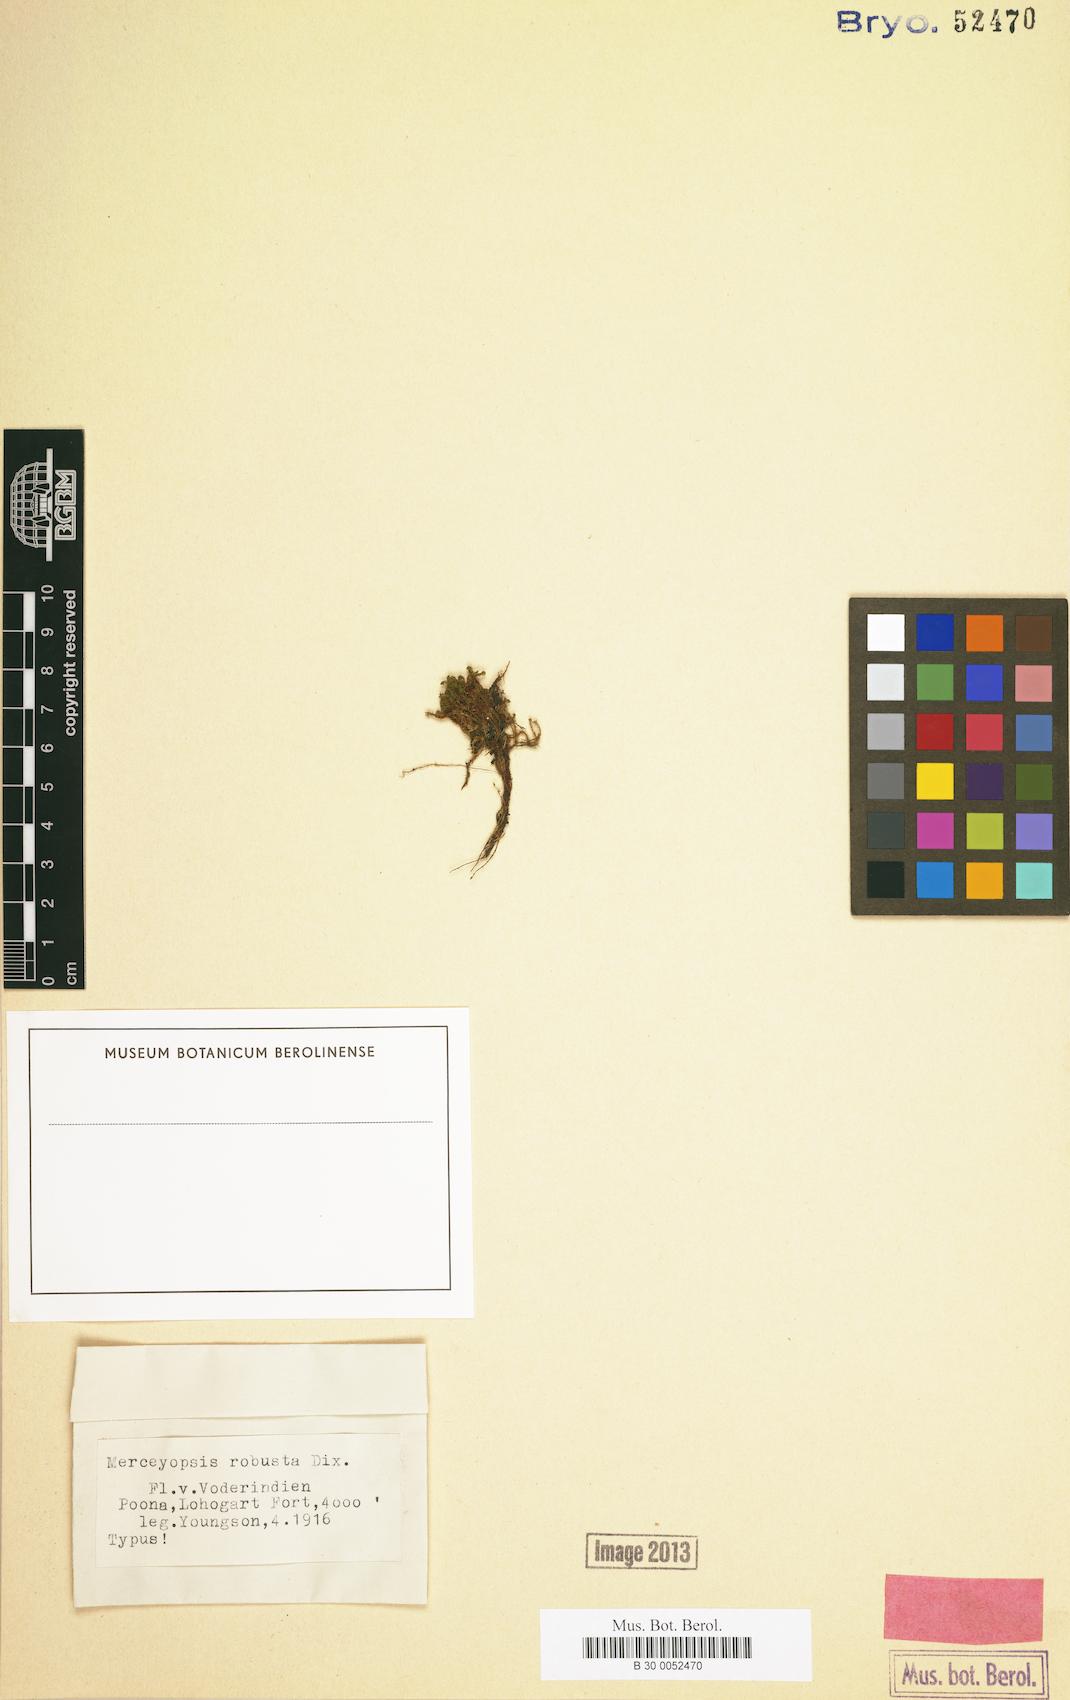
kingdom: Plantae
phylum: Bryophyta
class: Bryopsida
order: Pottiales
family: Pottiaceae
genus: Hymenostylium
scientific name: Hymenostylium xanthocarpum
